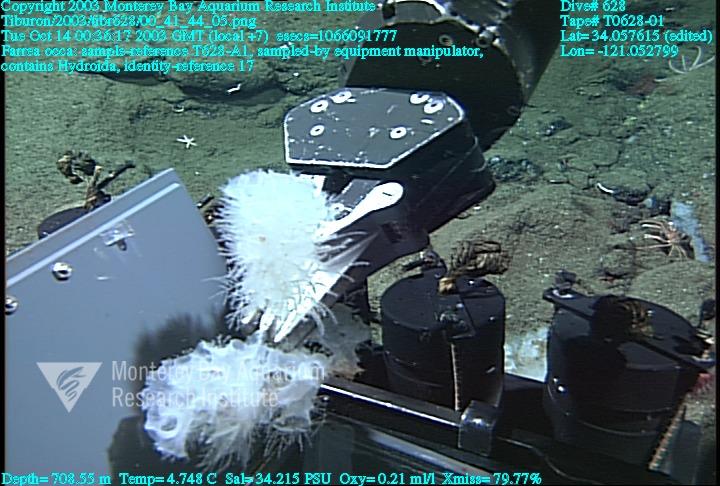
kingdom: Animalia
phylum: Porifera
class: Hexactinellida
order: Sceptrulophora
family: Farreidae
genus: Farrea
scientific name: Farrea occa
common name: Reversed glass sponge
